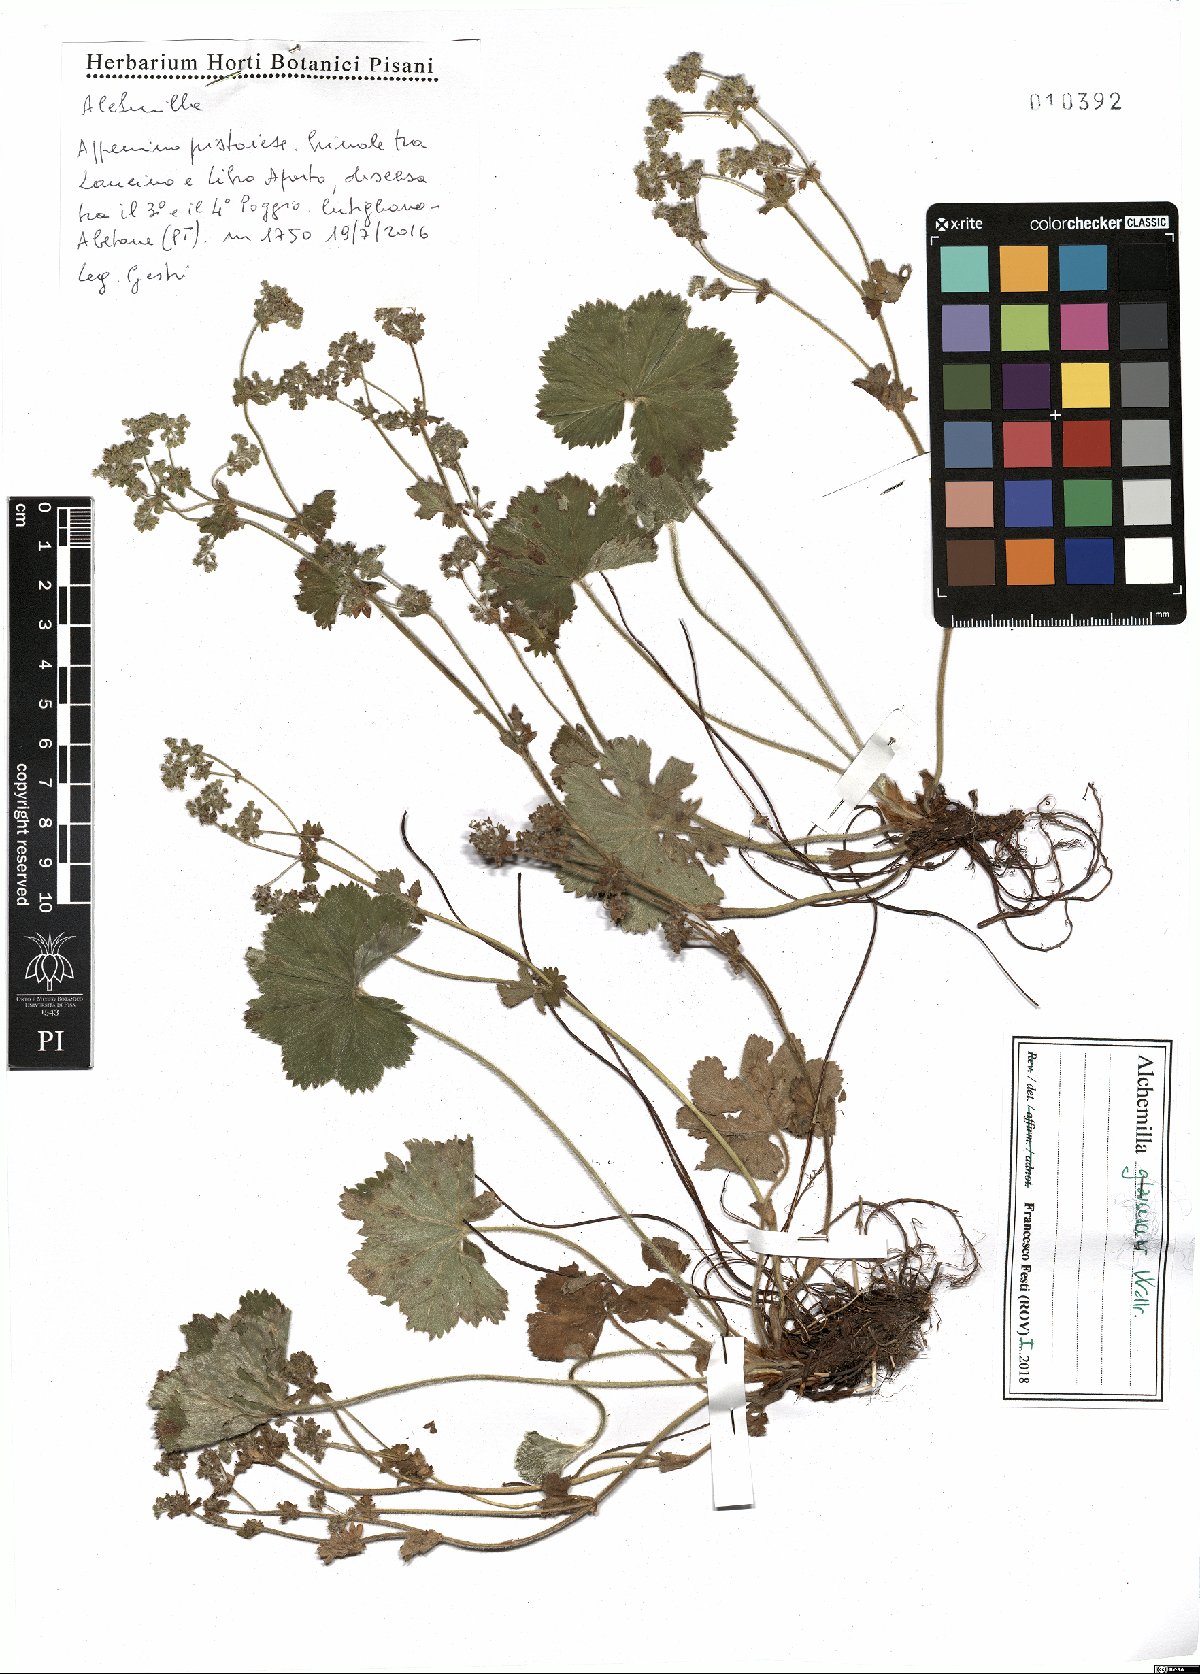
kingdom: Plantae
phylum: Tracheophyta
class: Magnoliopsida
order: Rosales
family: Rosaceae
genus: Alchemilla
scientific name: Alchemilla glaucescens
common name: Silky lady's mantle
